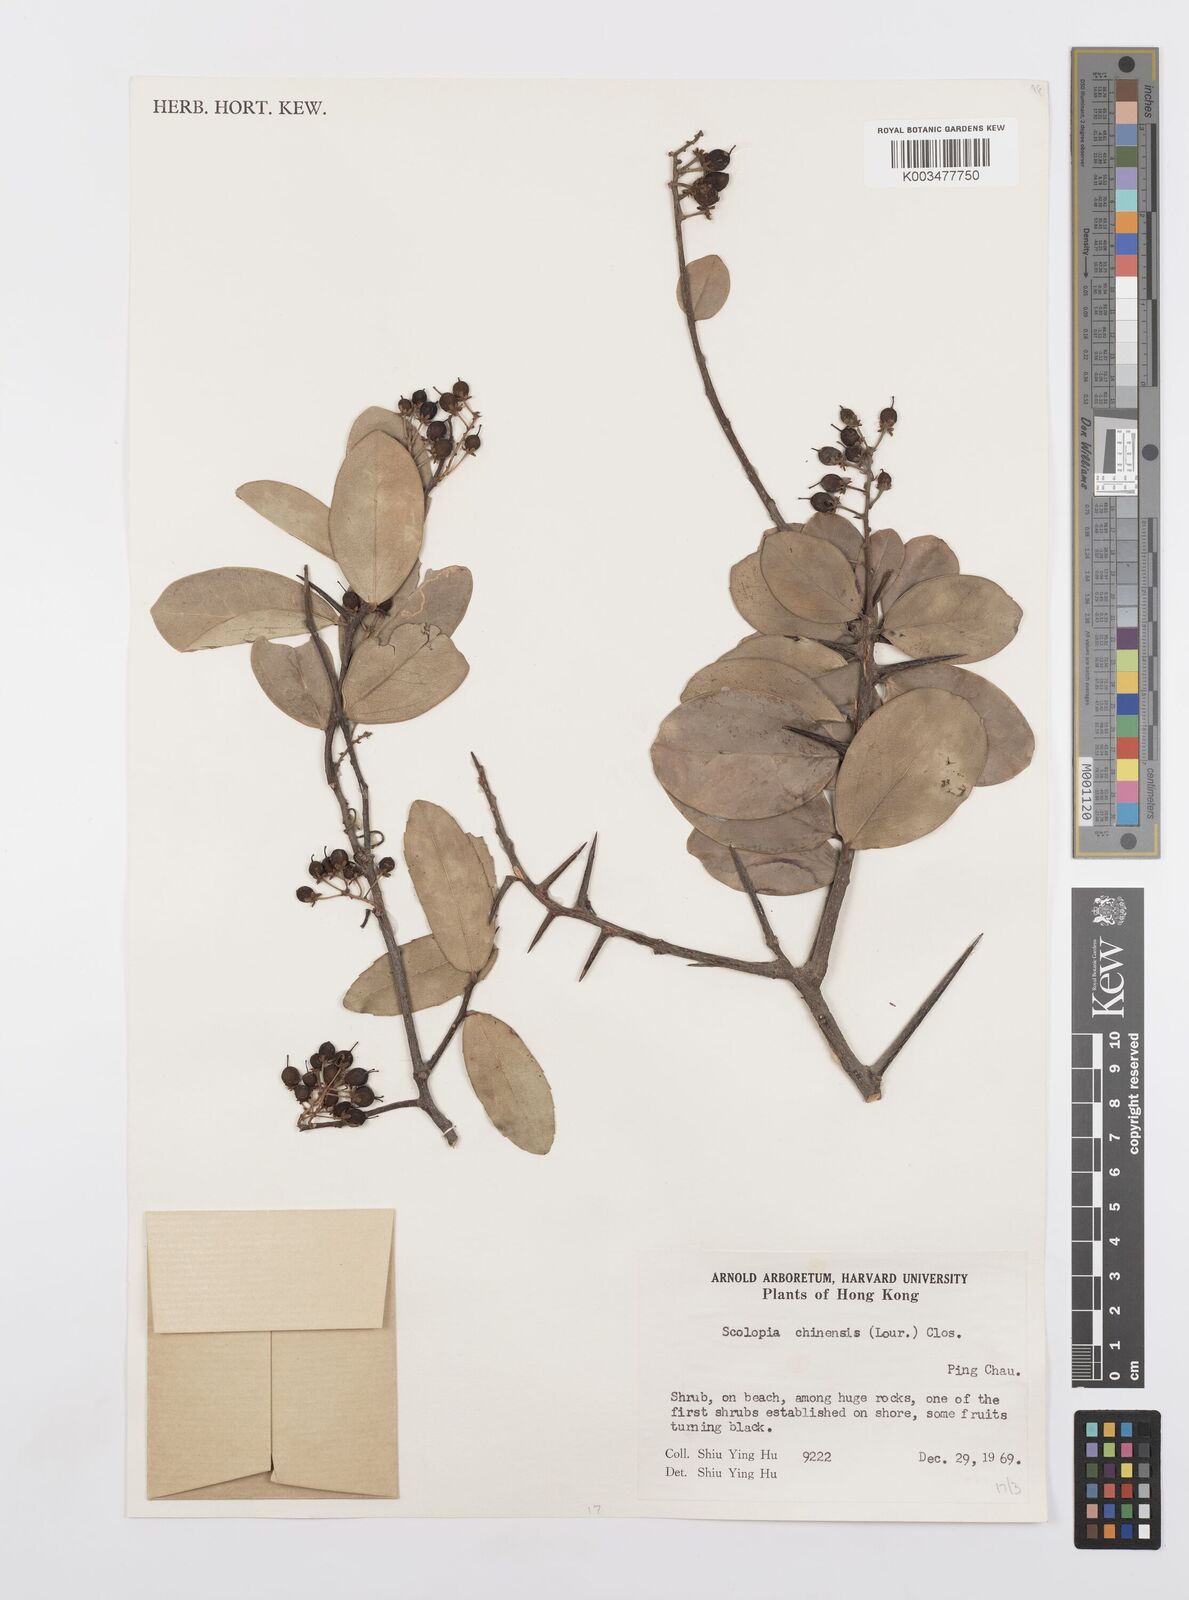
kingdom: Plantae
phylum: Tracheophyta
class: Magnoliopsida
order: Malpighiales
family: Salicaceae
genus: Scolopia
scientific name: Scolopia chinensis
